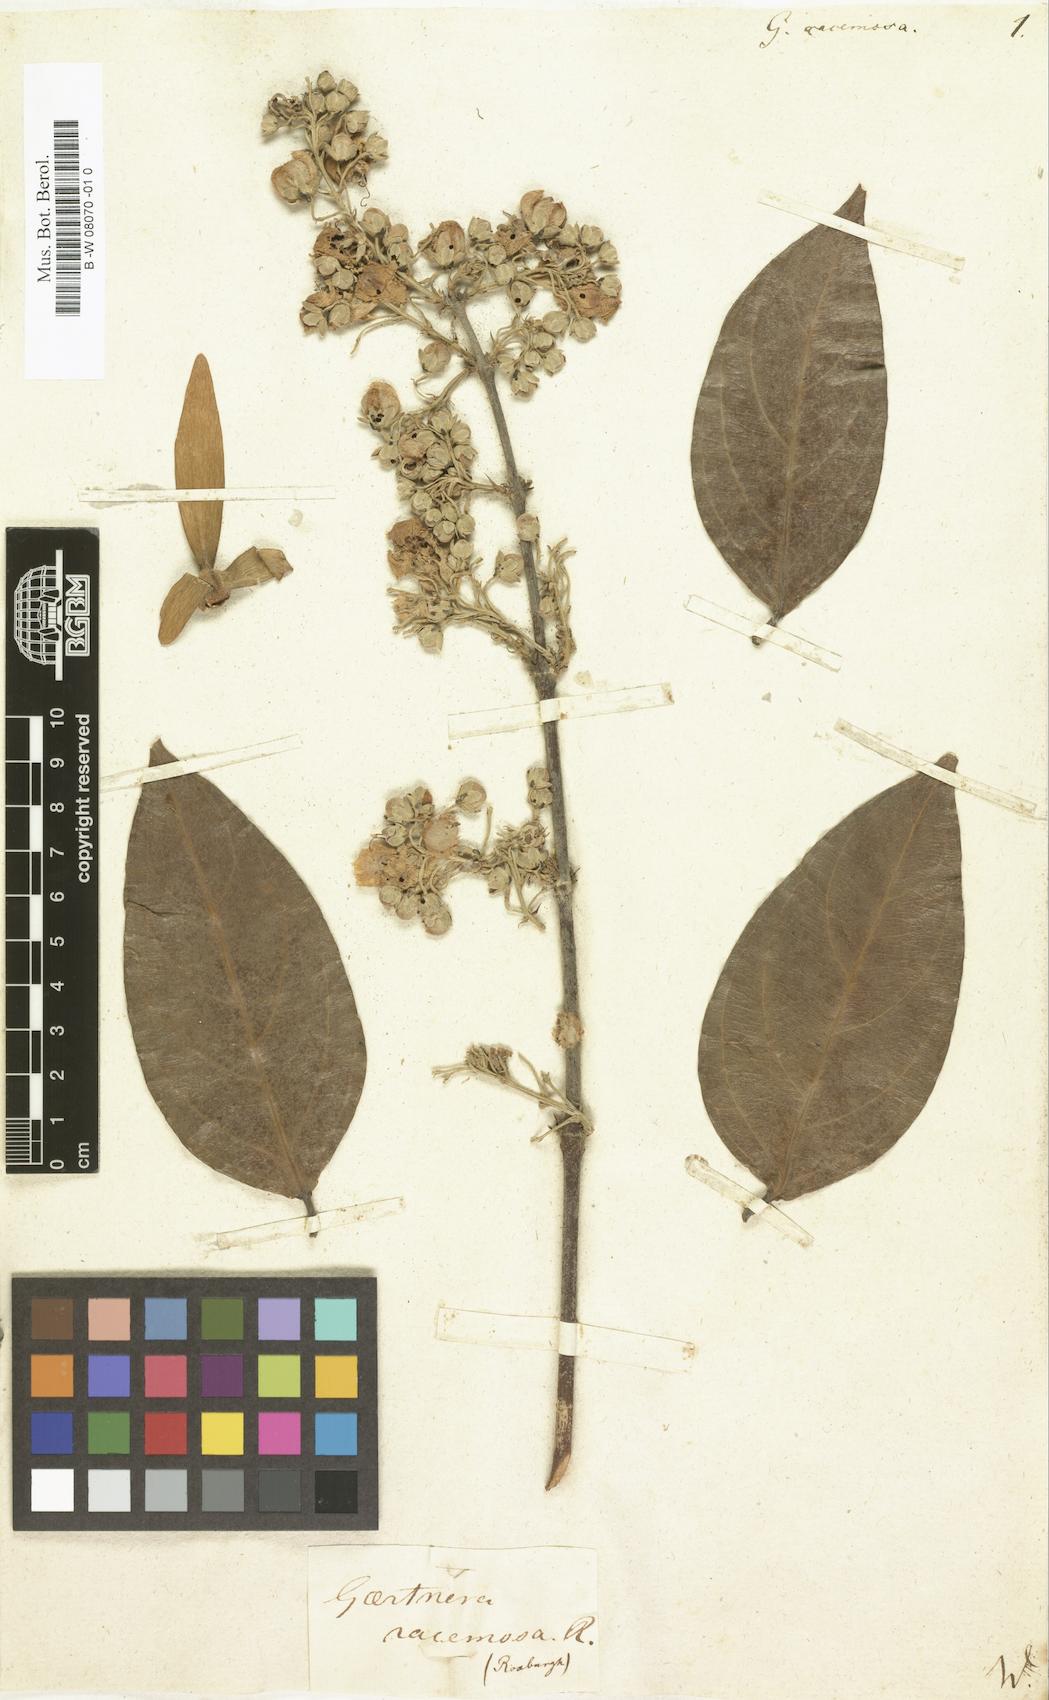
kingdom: Plantae
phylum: Tracheophyta
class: Magnoliopsida
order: Malpighiales
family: Malpighiaceae
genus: Hiptage
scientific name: Hiptage benghalensis
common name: Hiptage
